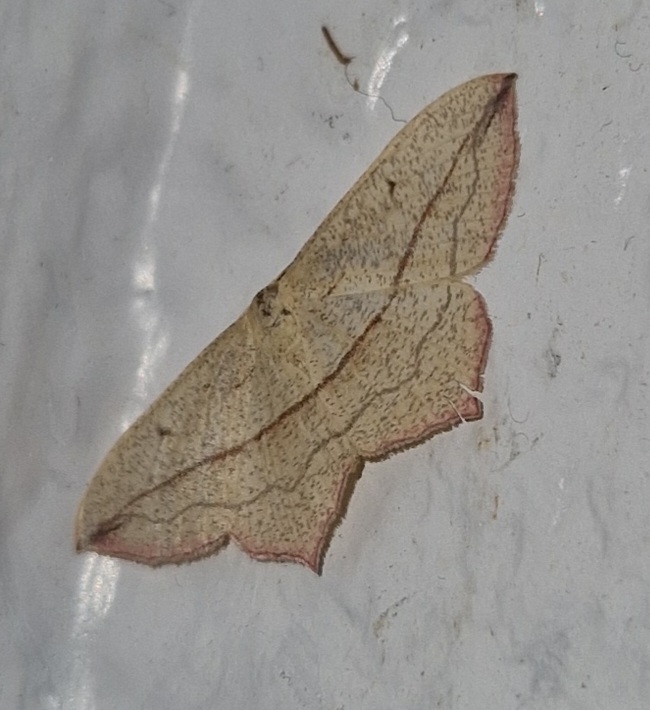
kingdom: Animalia
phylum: Arthropoda
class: Insecta
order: Lepidoptera
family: Geometridae
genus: Timandra
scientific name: Timandra comae
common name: Gul syremåler
